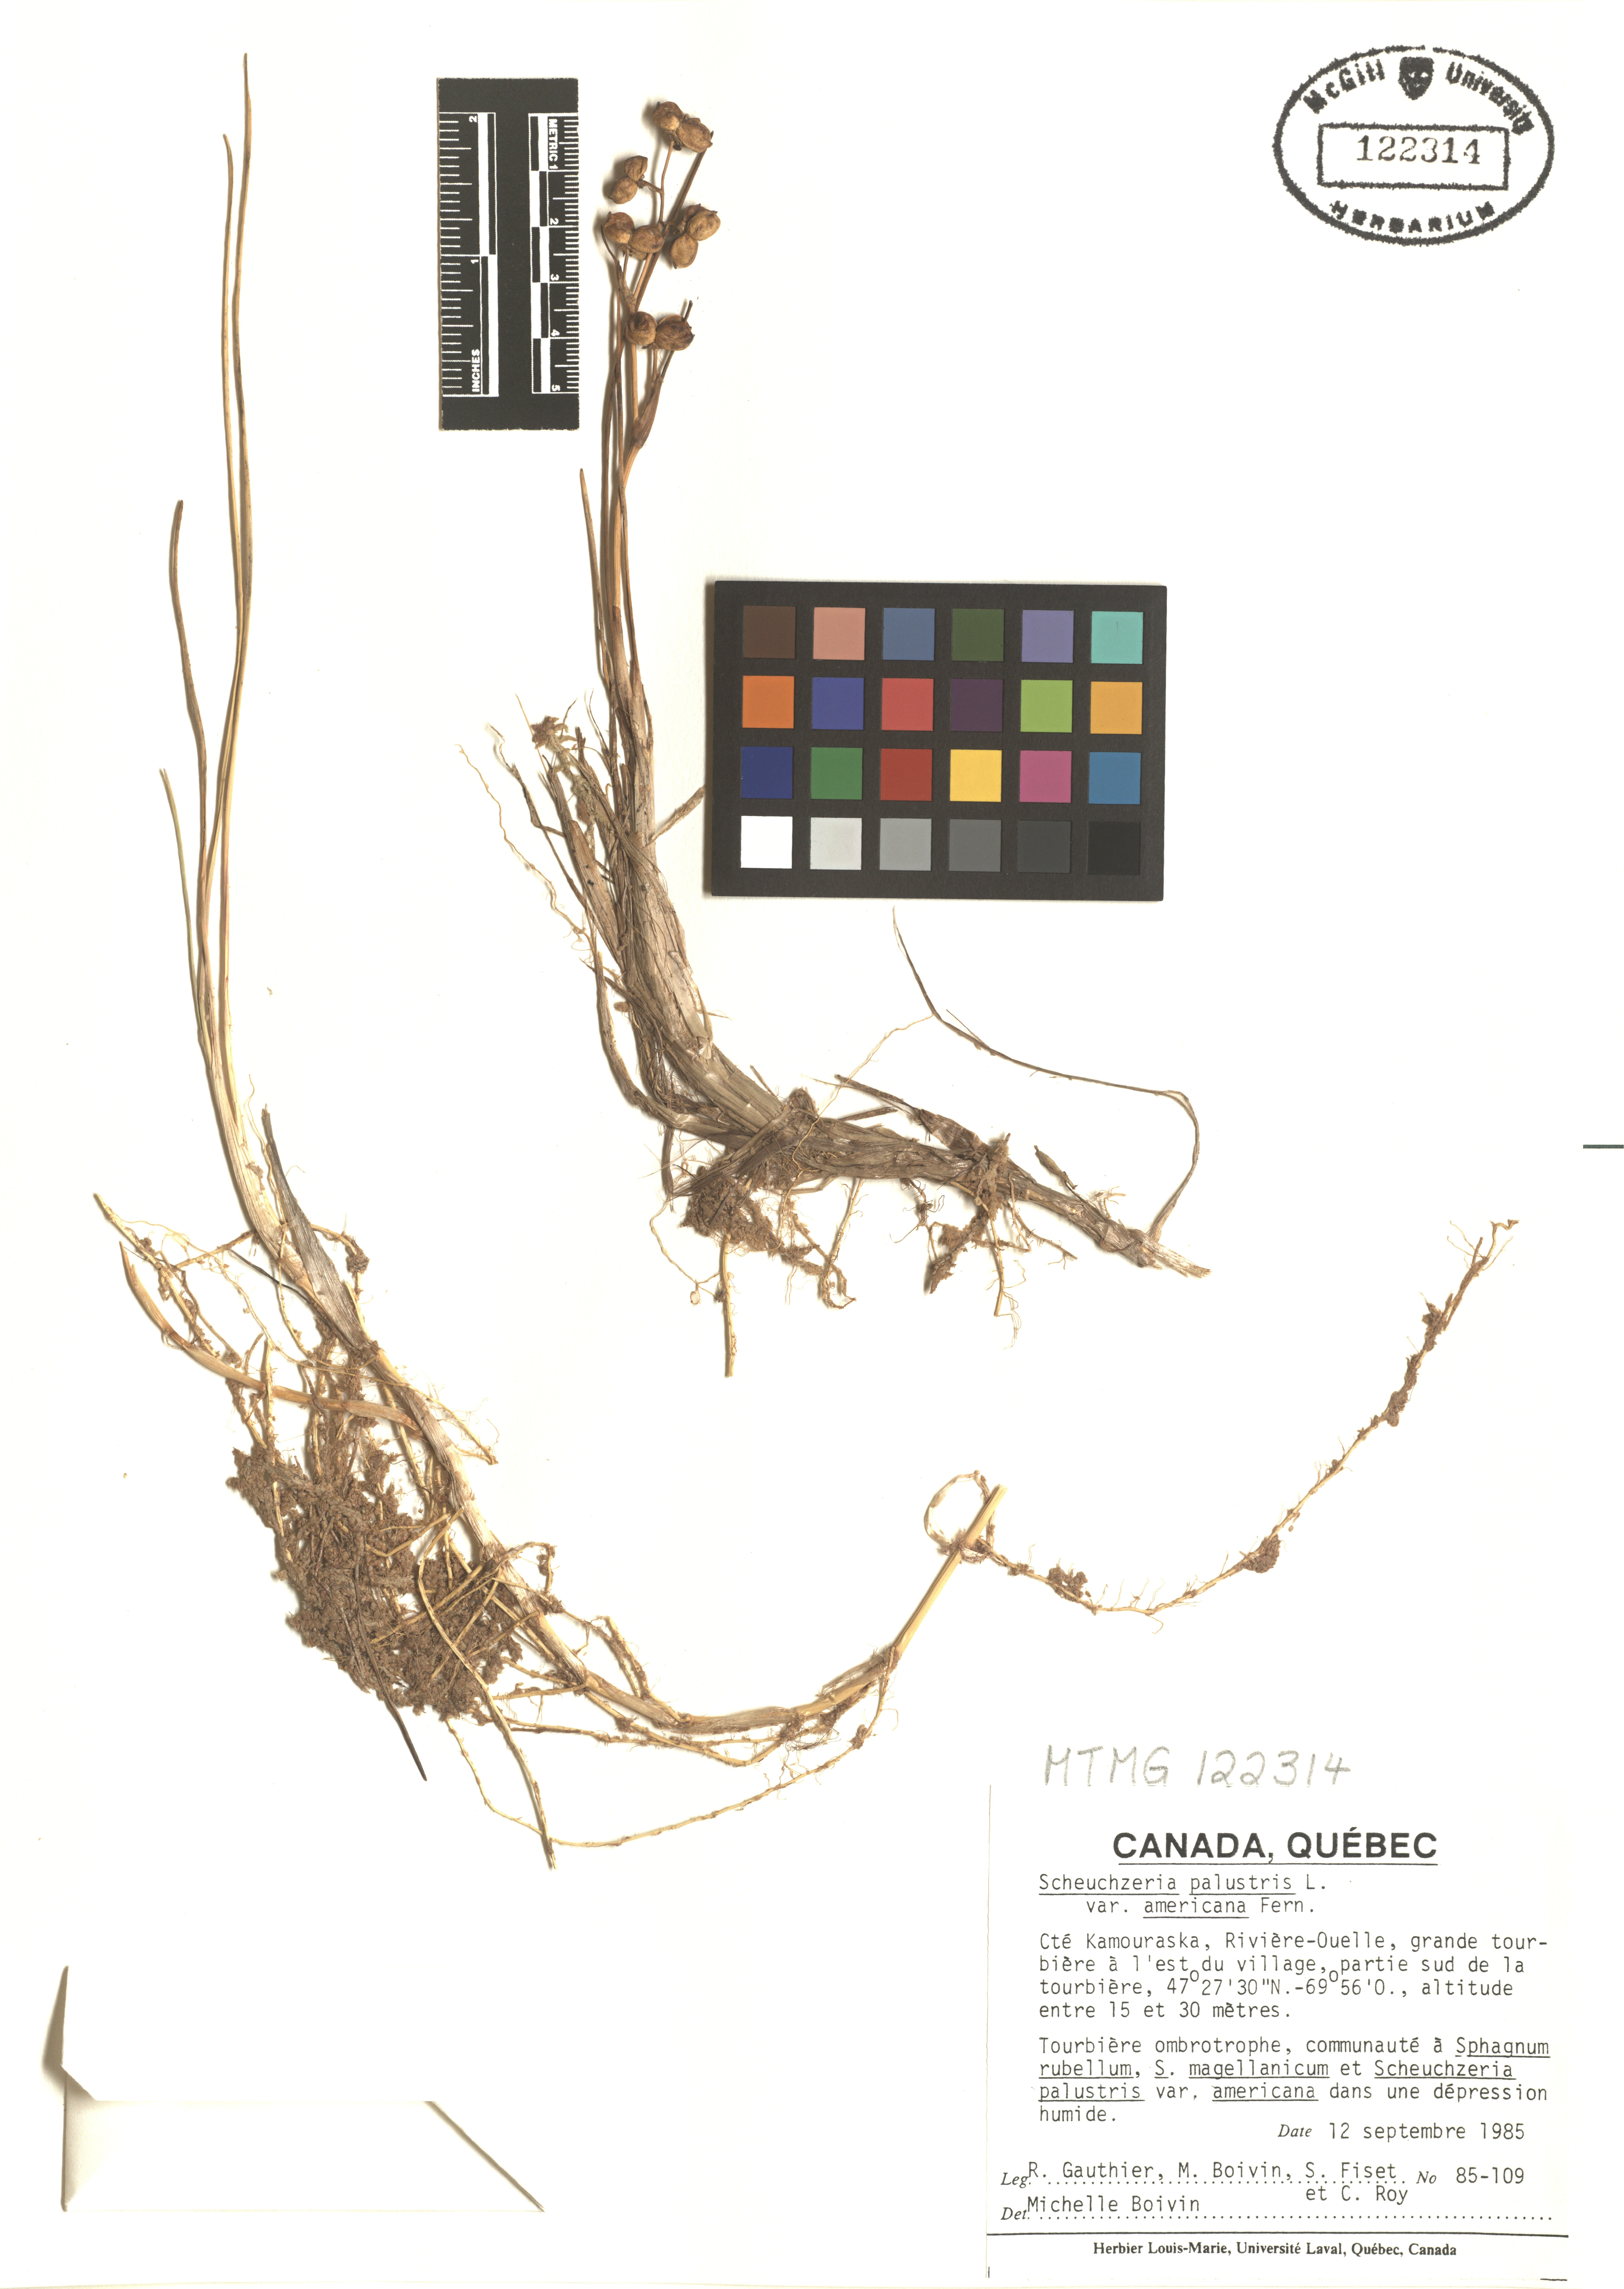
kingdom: Plantae
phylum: Tracheophyta
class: Liliopsida
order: Alismatales
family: Scheuchzeriaceae
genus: Scheuchzeria
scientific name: Scheuchzeria palustris
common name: Rannoch-rush
